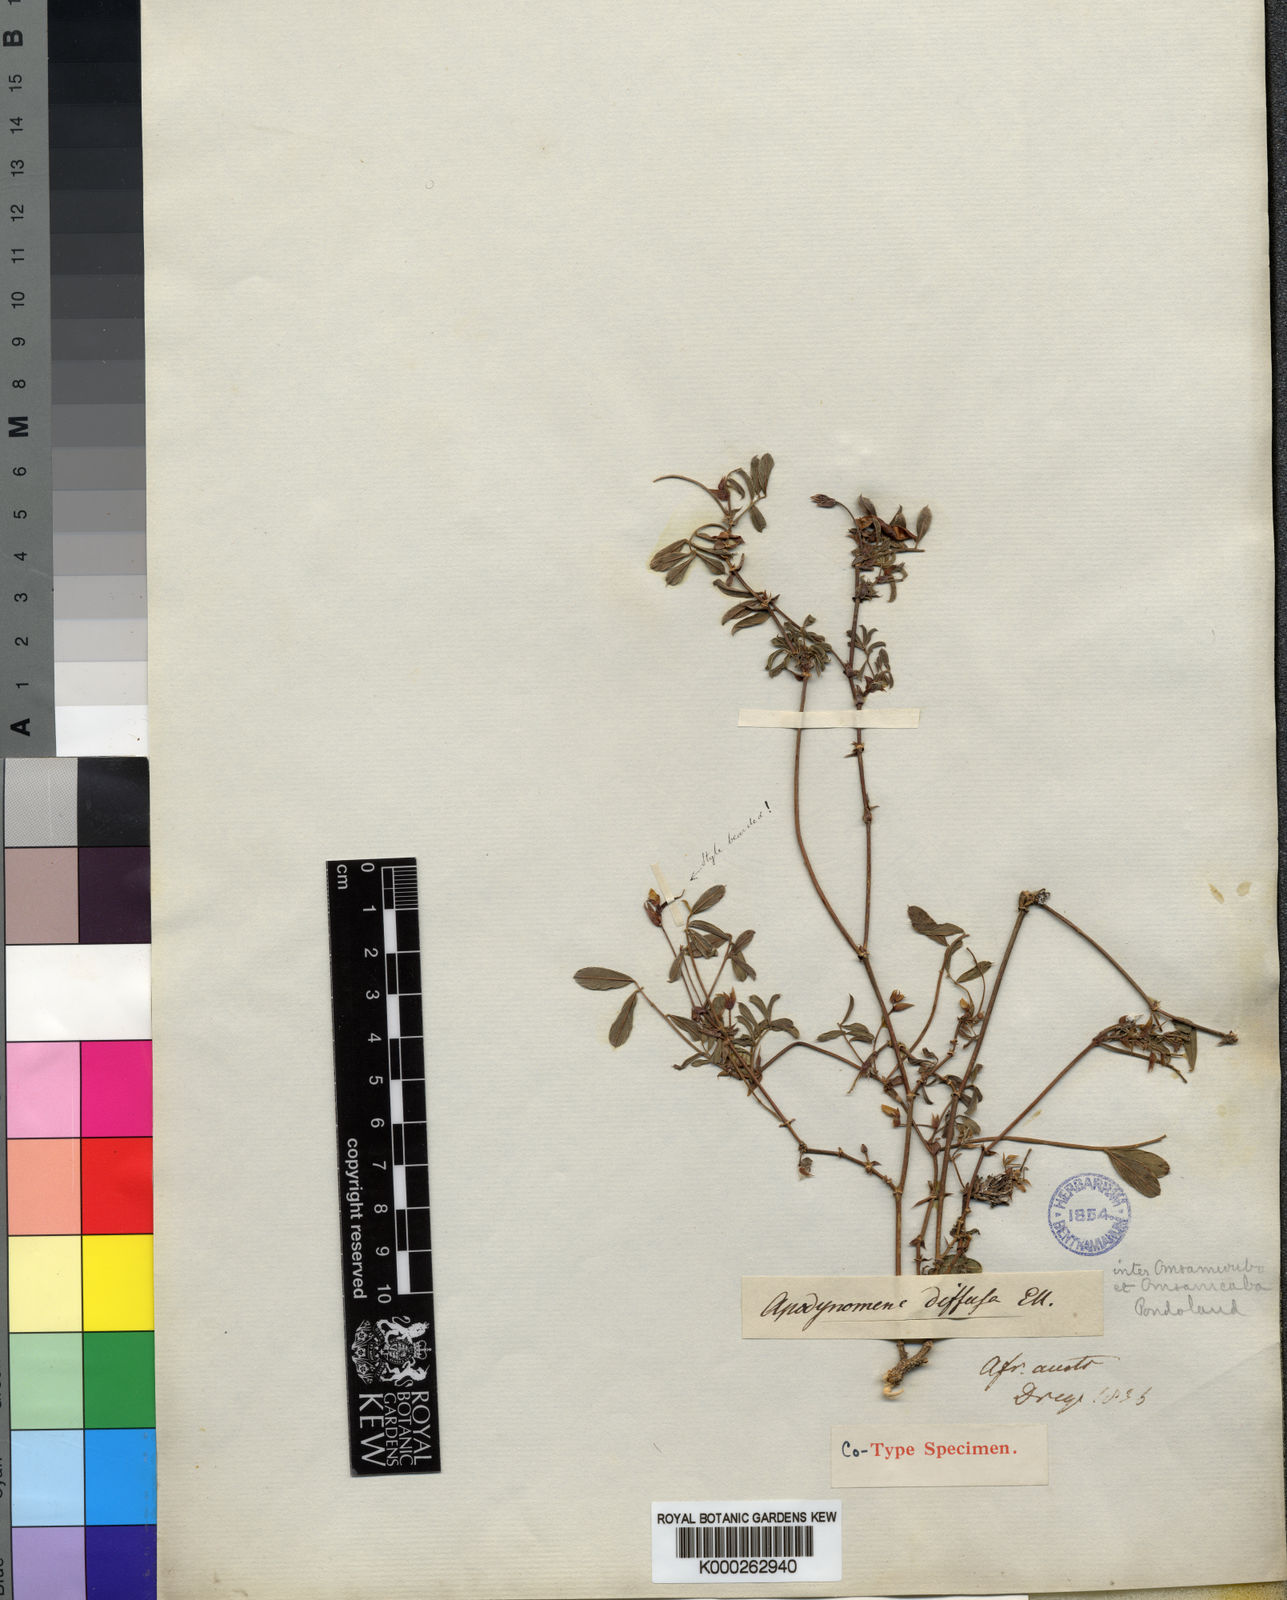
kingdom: Plantae
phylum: Tracheophyta
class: Magnoliopsida
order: Fabales
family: Fabaceae
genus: Tephrosia
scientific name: Tephrosia macropoda
